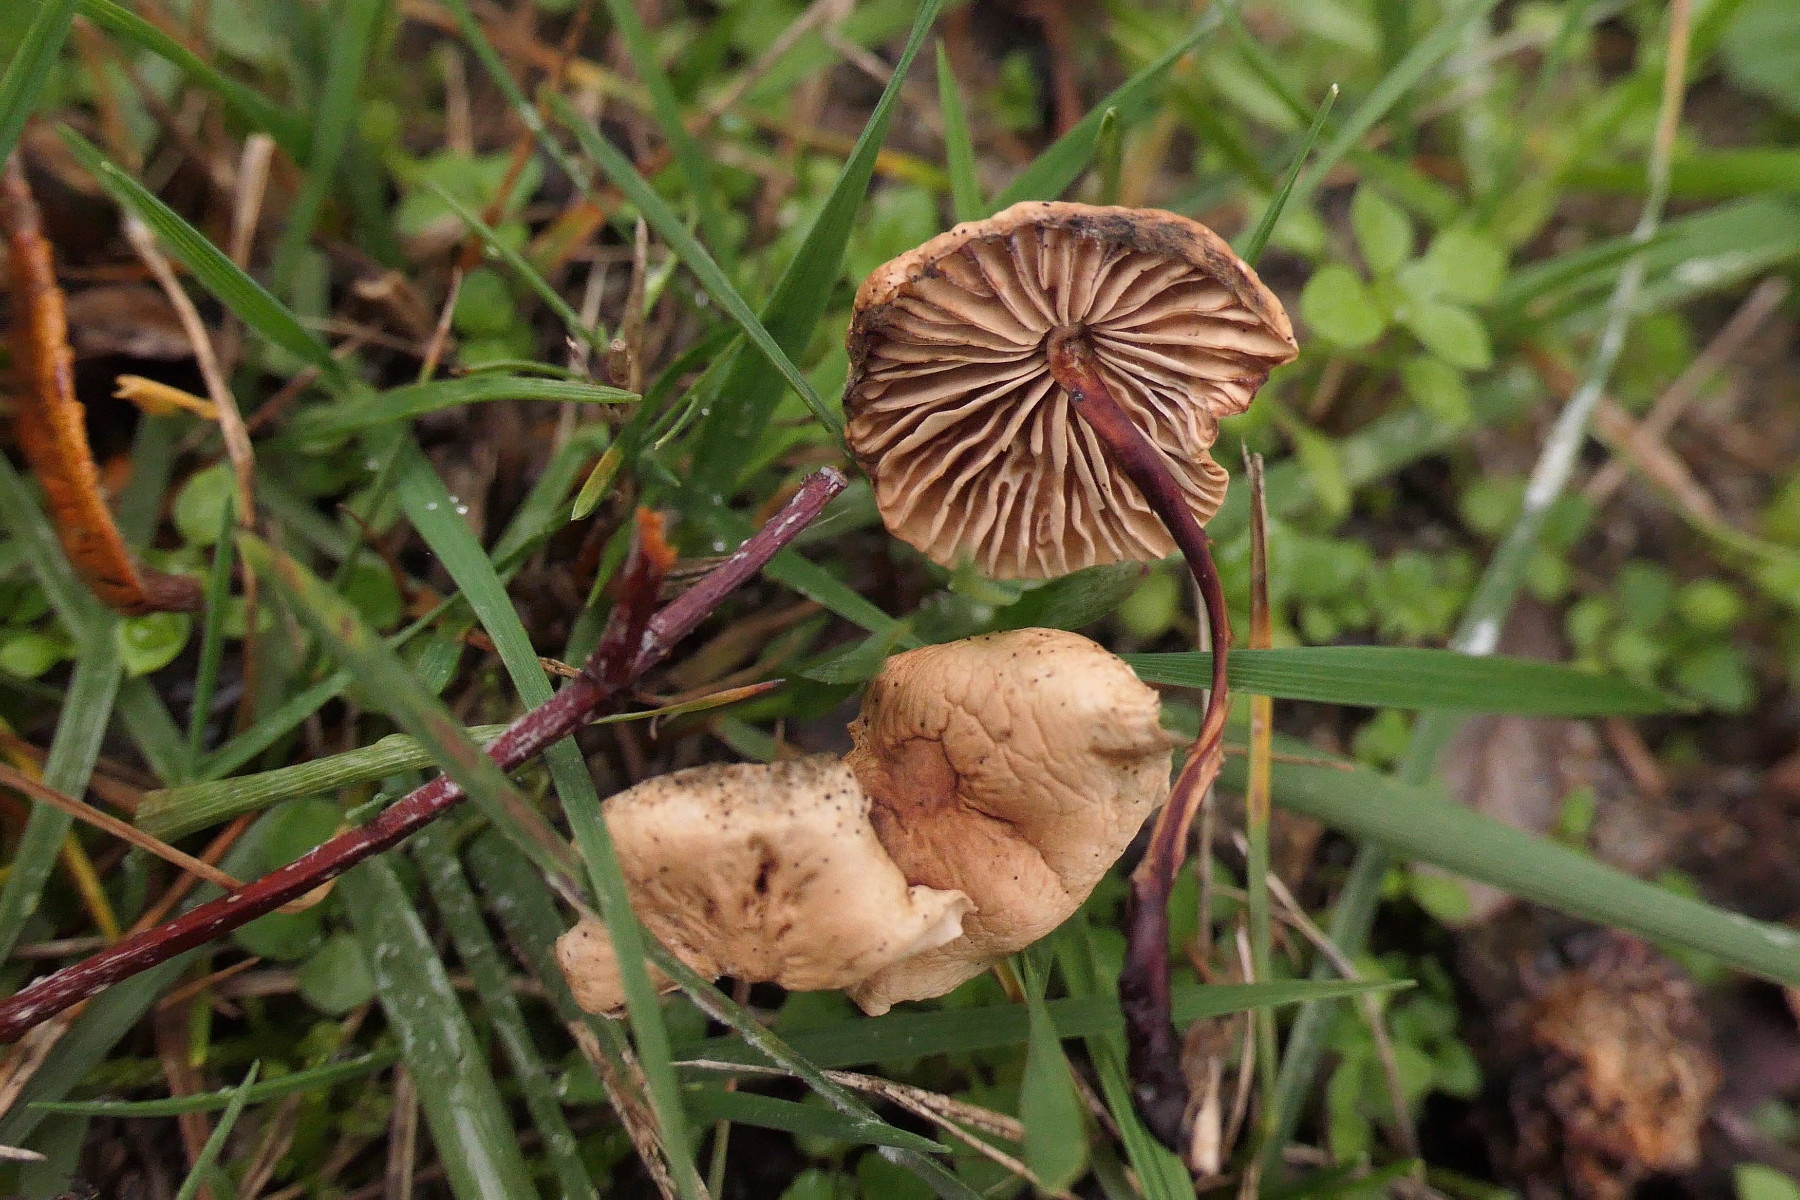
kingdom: Fungi
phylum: Basidiomycota
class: Agaricomycetes
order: Agaricales
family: Omphalotaceae
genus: Mycetinis
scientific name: Mycetinis scorodonius
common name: lille løghat
